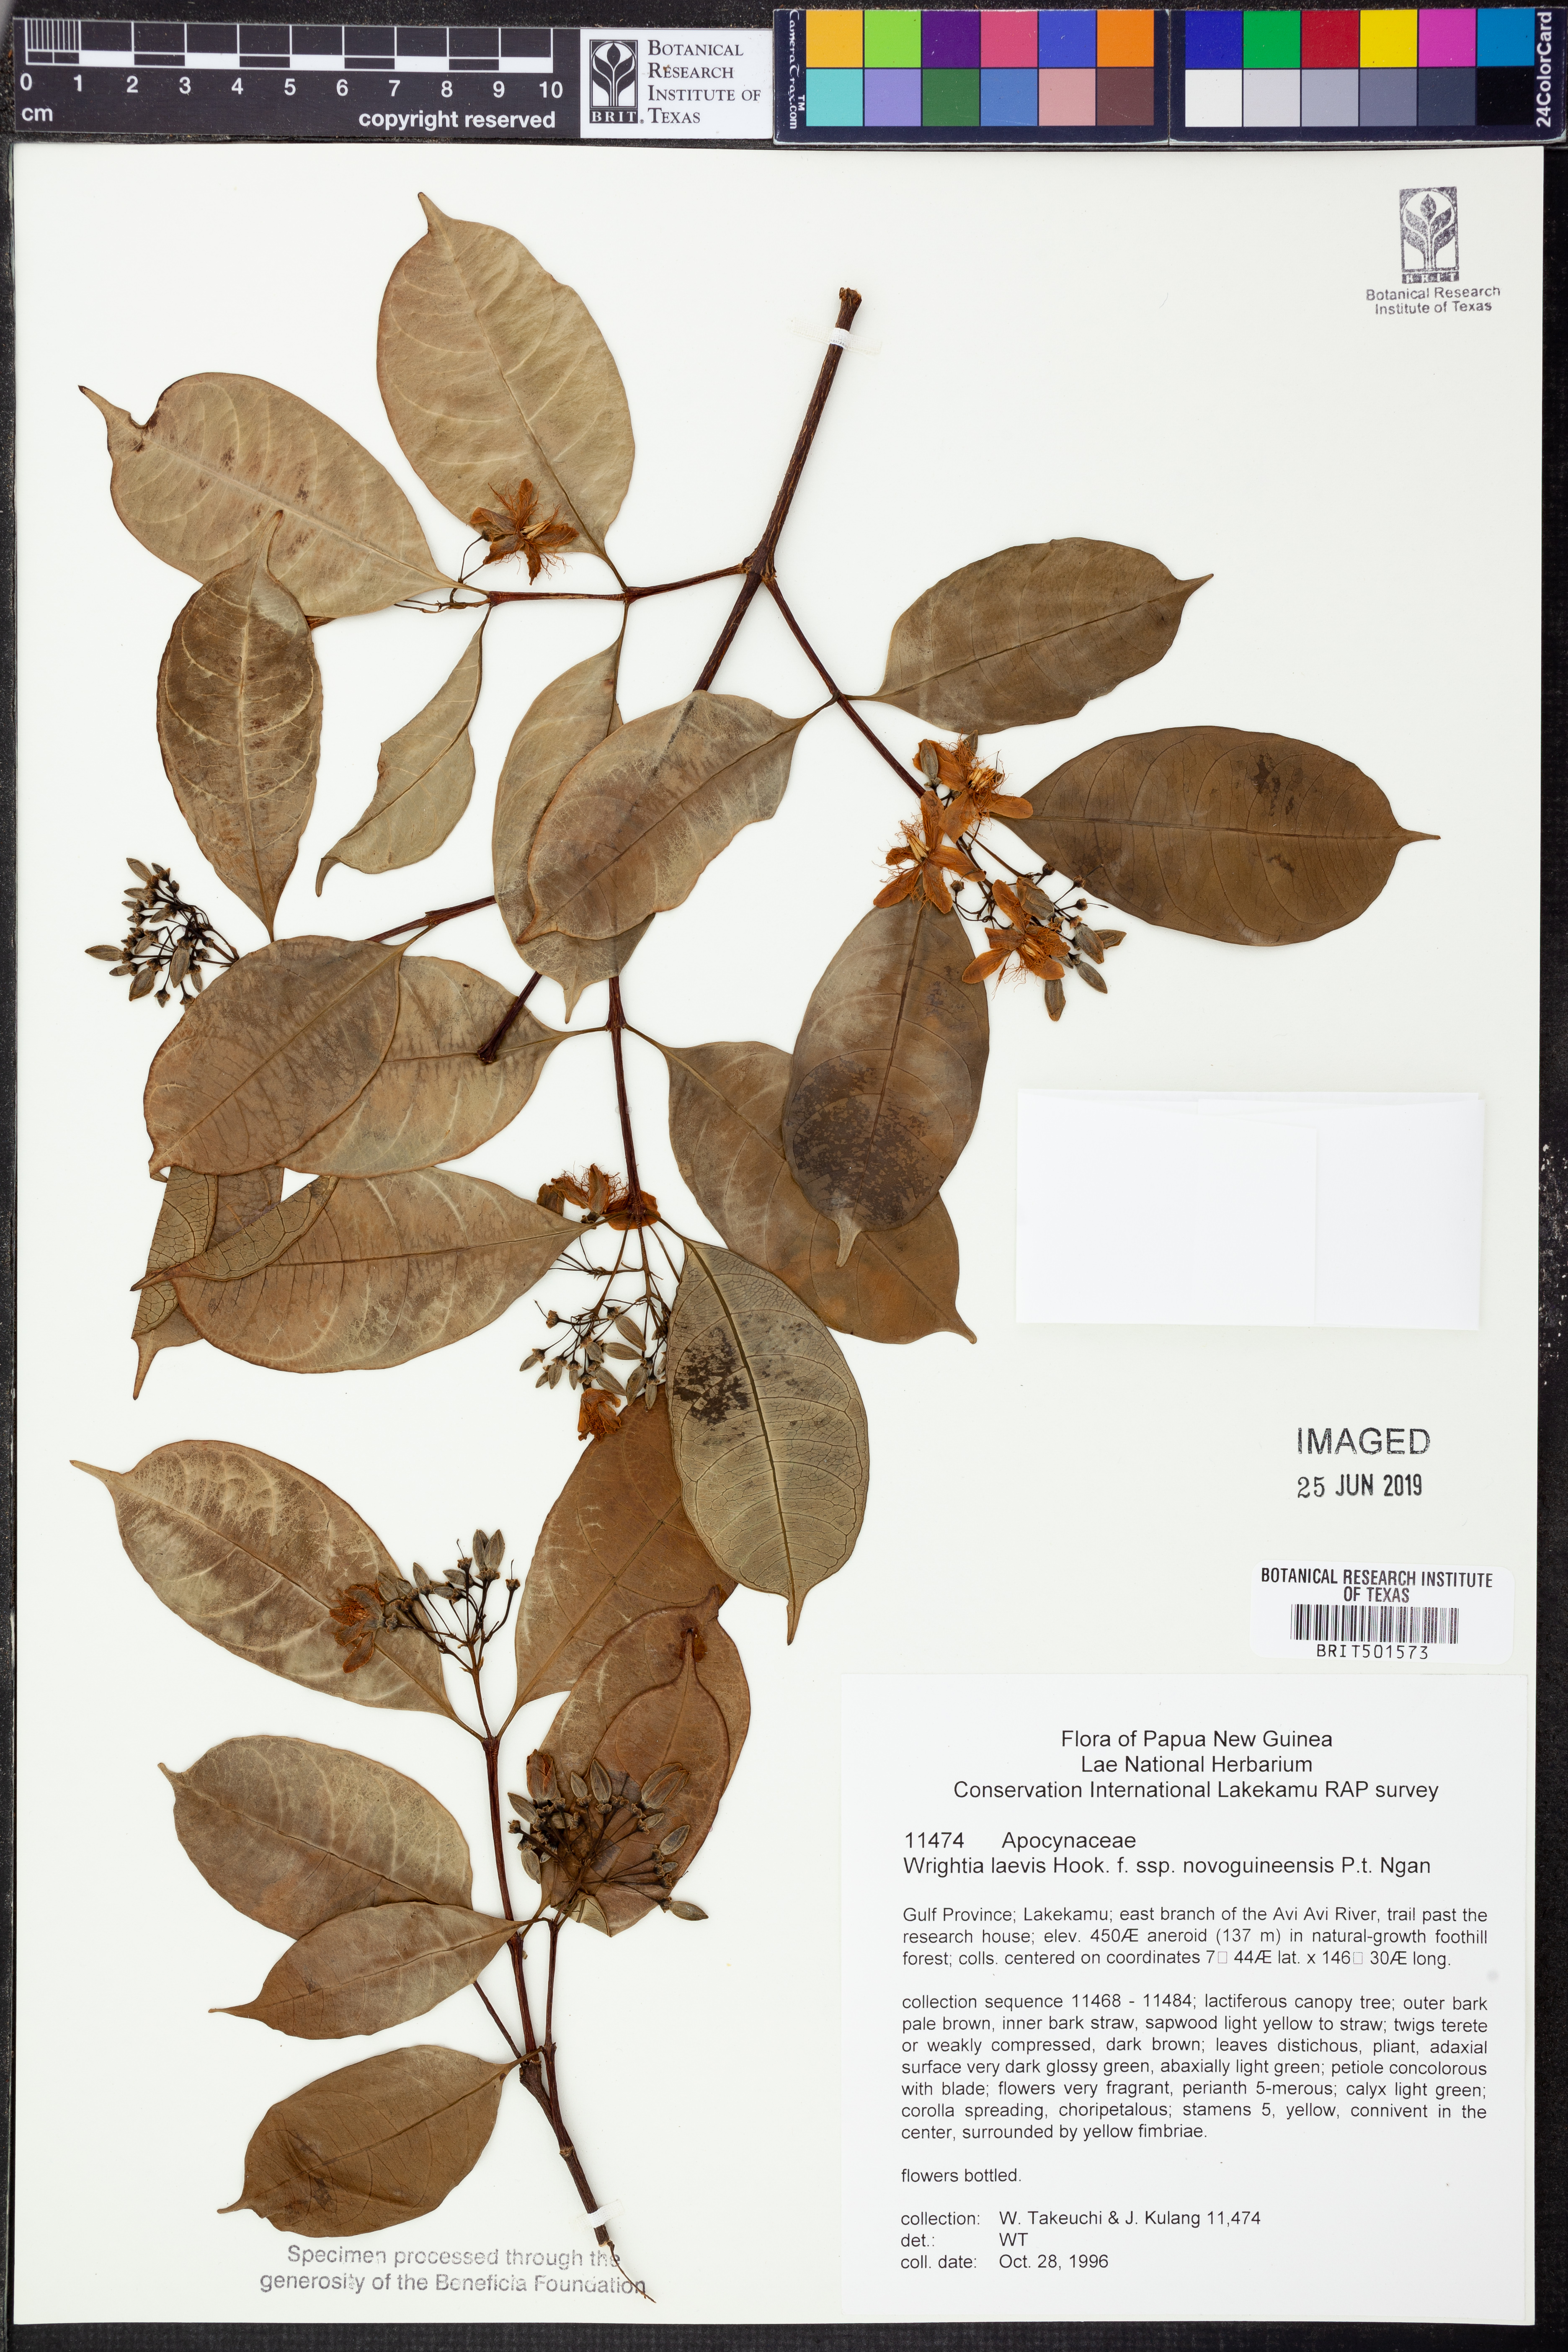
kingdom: Plantae
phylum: Tracheophyta
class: Magnoliopsida
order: Gentianales
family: Apocynaceae
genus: Wrightia
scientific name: Wrightia laevis
